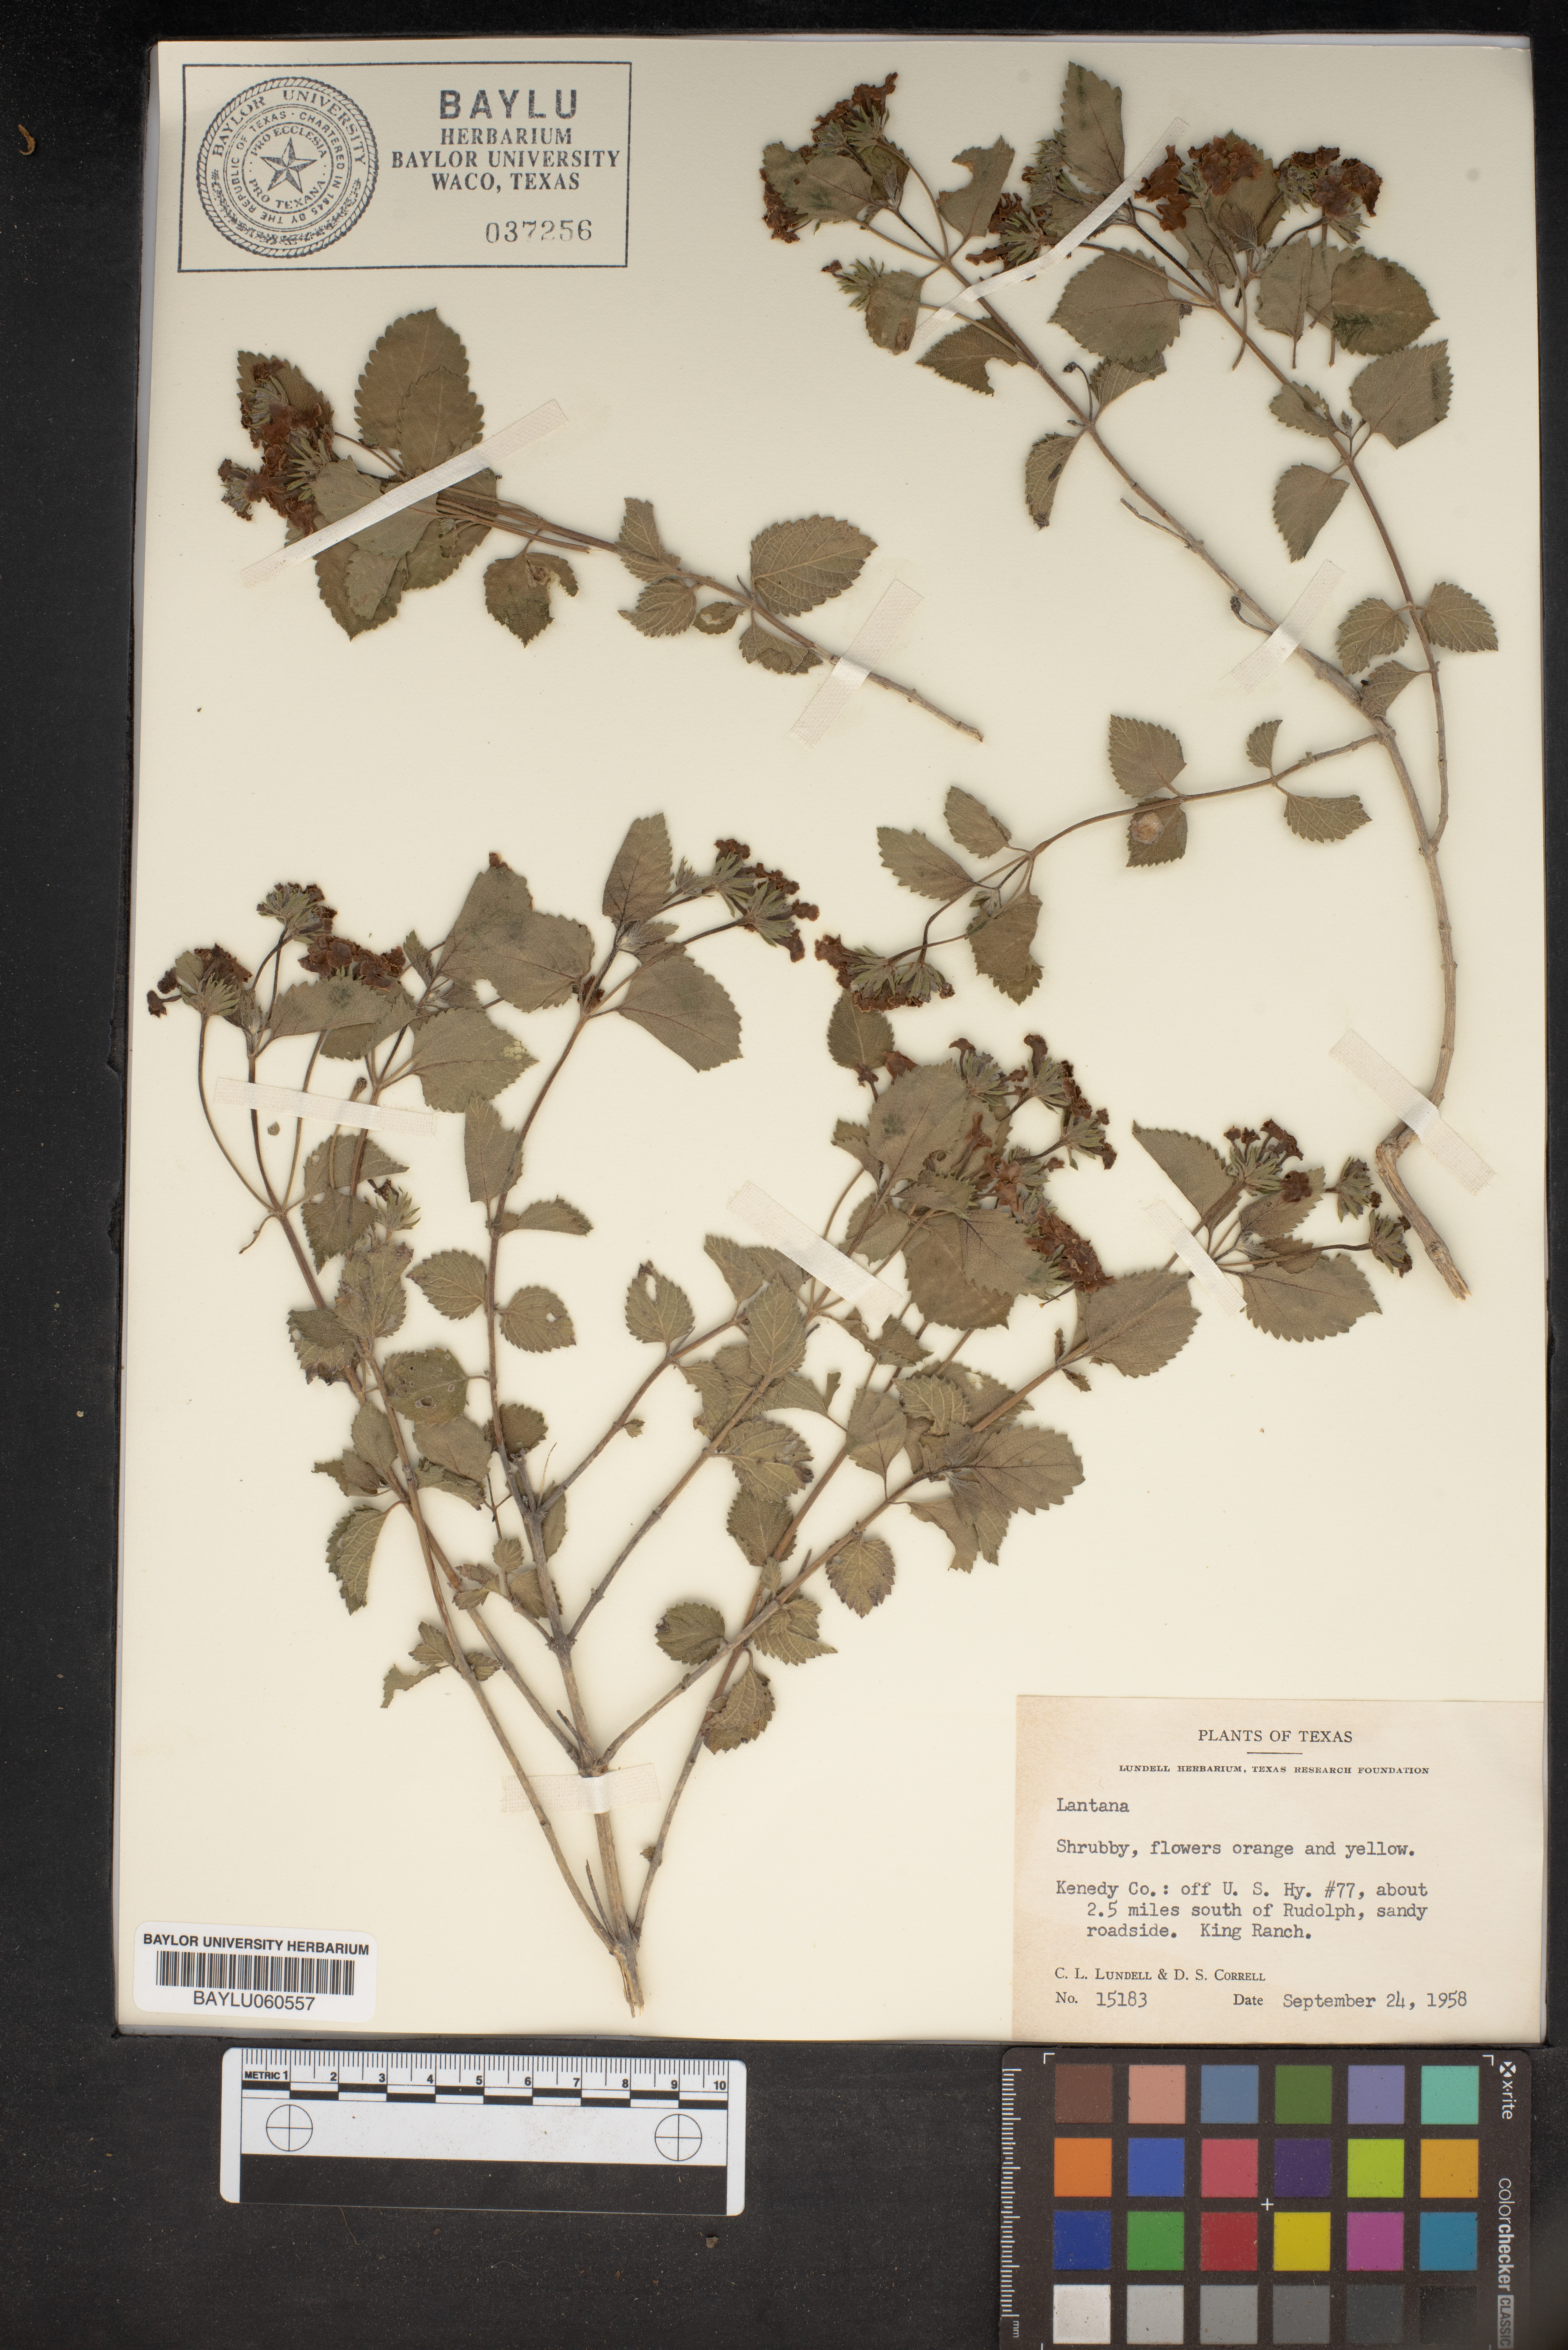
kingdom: Plantae
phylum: Tracheophyta
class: Magnoliopsida
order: Lamiales
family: Verbenaceae
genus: Lantana
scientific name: Lantana
